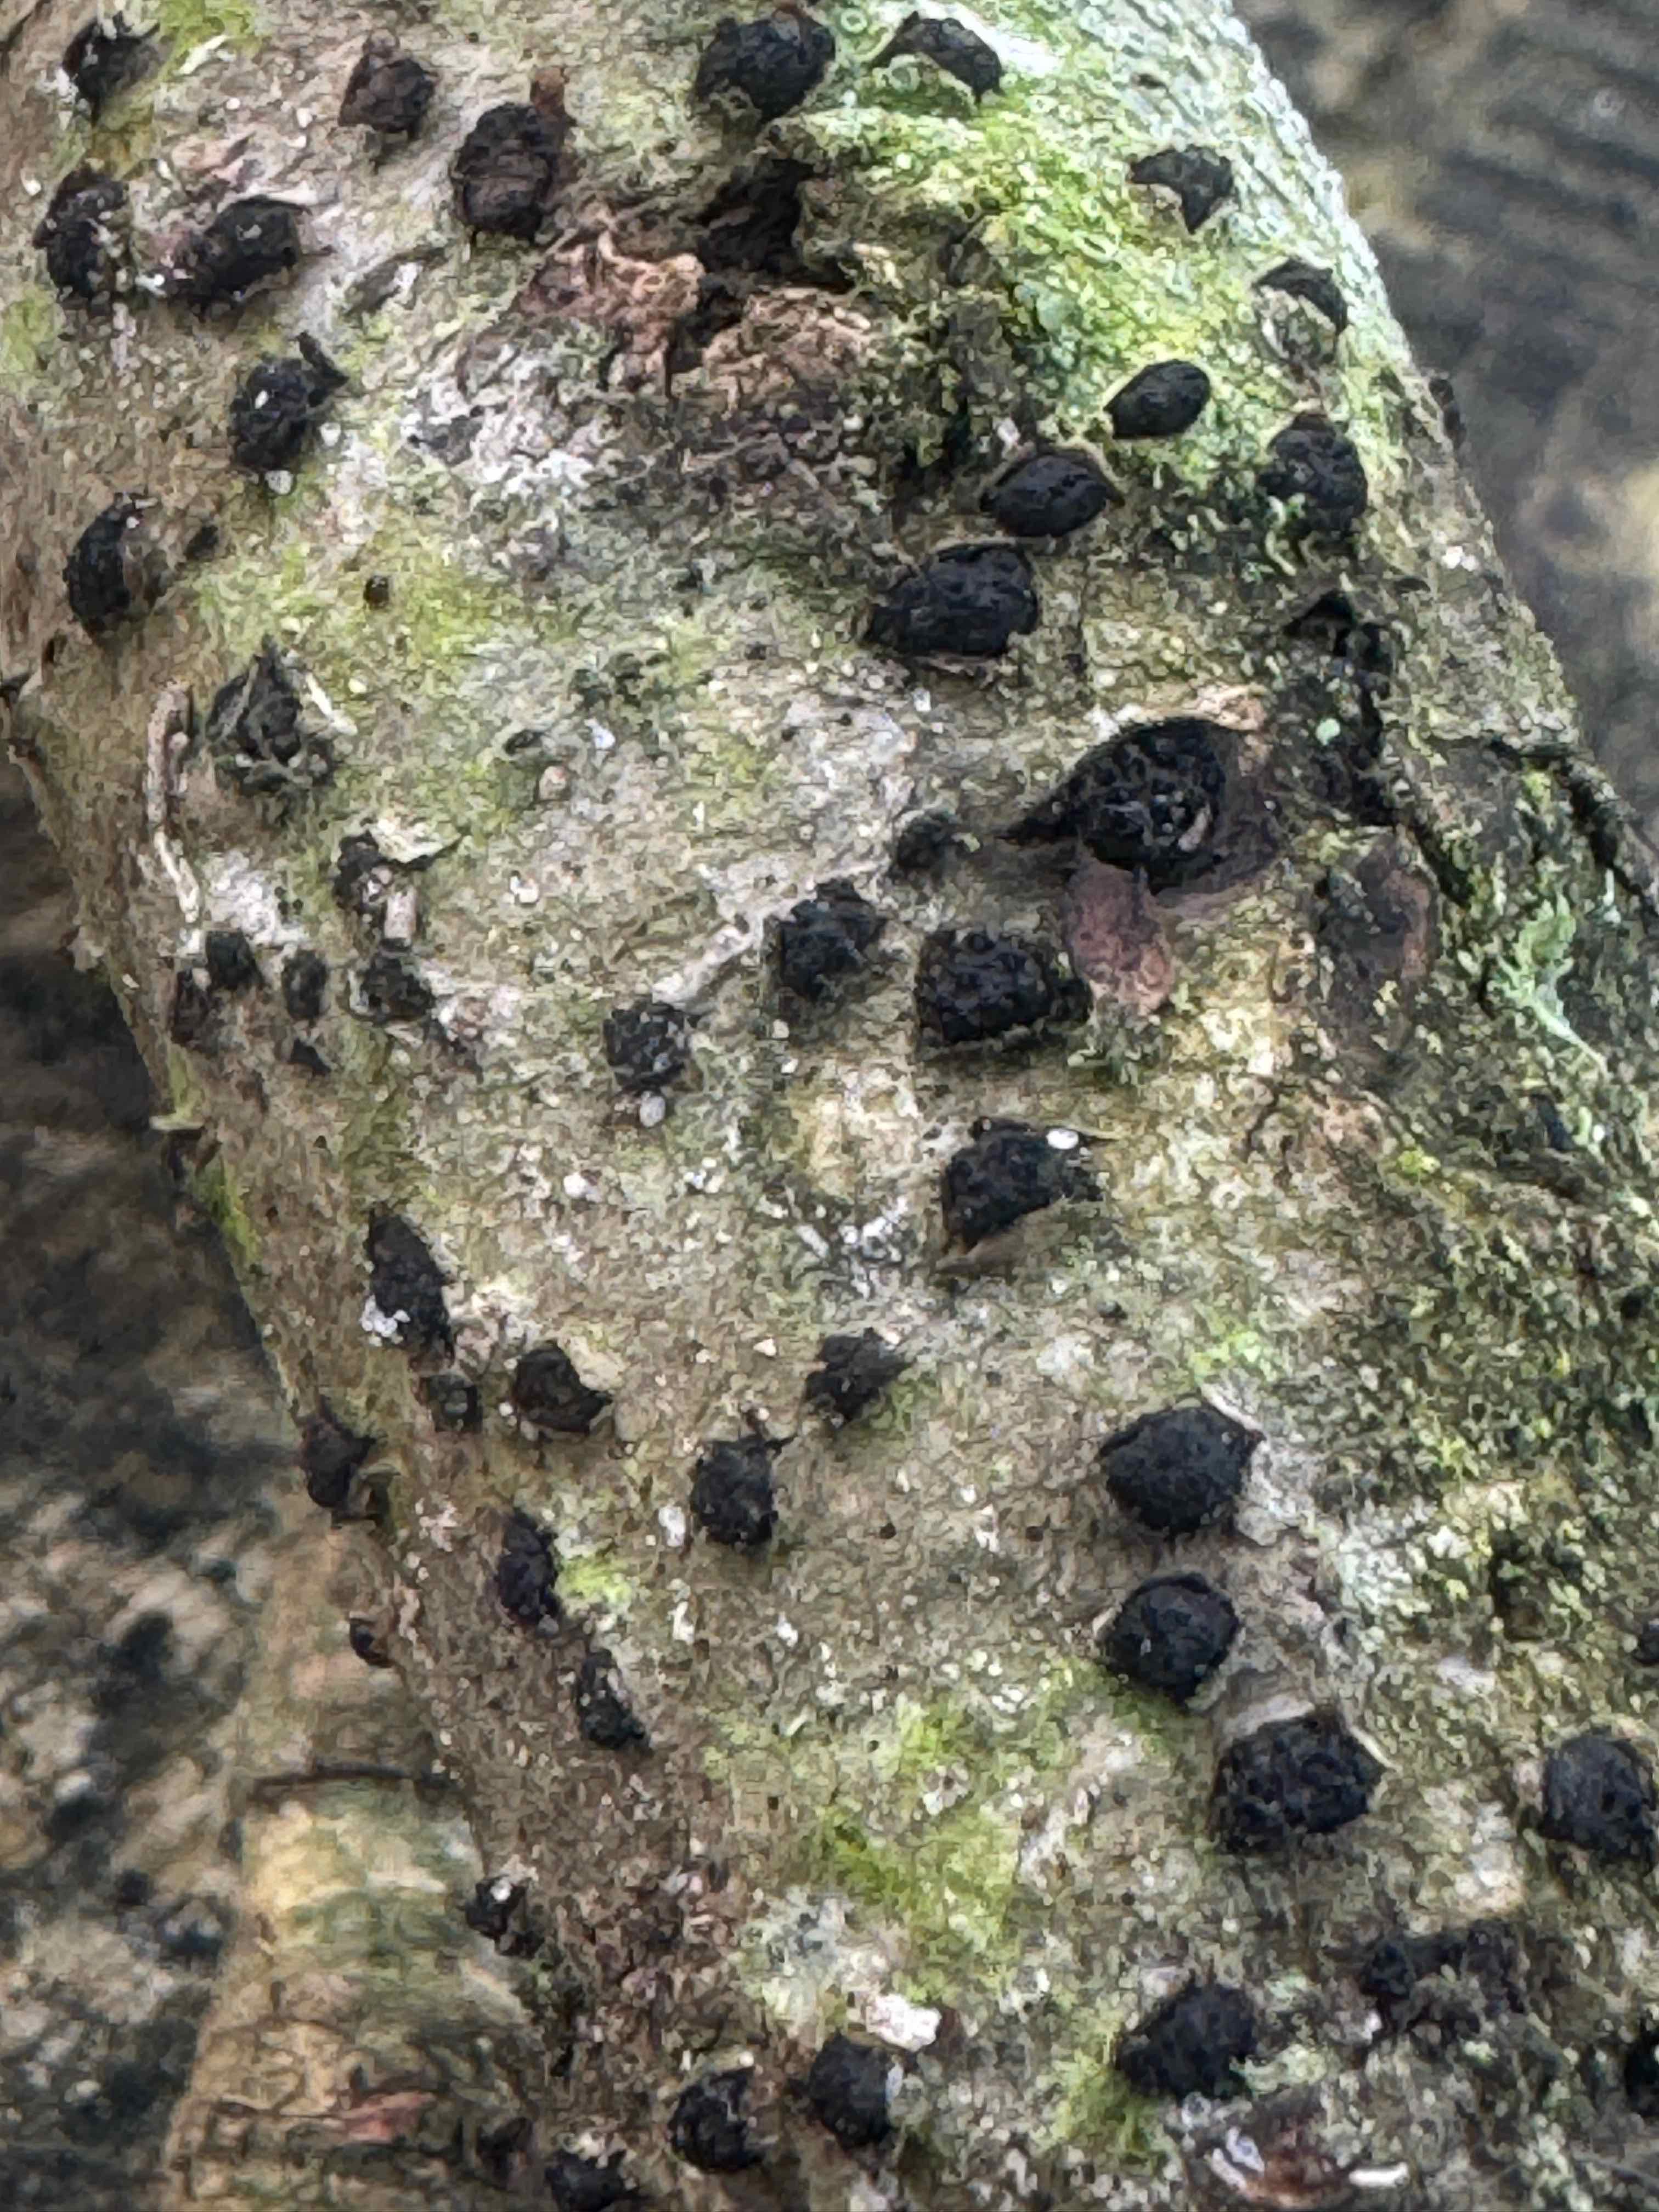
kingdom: Fungi
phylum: Ascomycota
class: Sordariomycetes
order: Xylariales
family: Diatrypaceae
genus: Diatrypella
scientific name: Diatrypella quercina
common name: ege-kulskorpe
